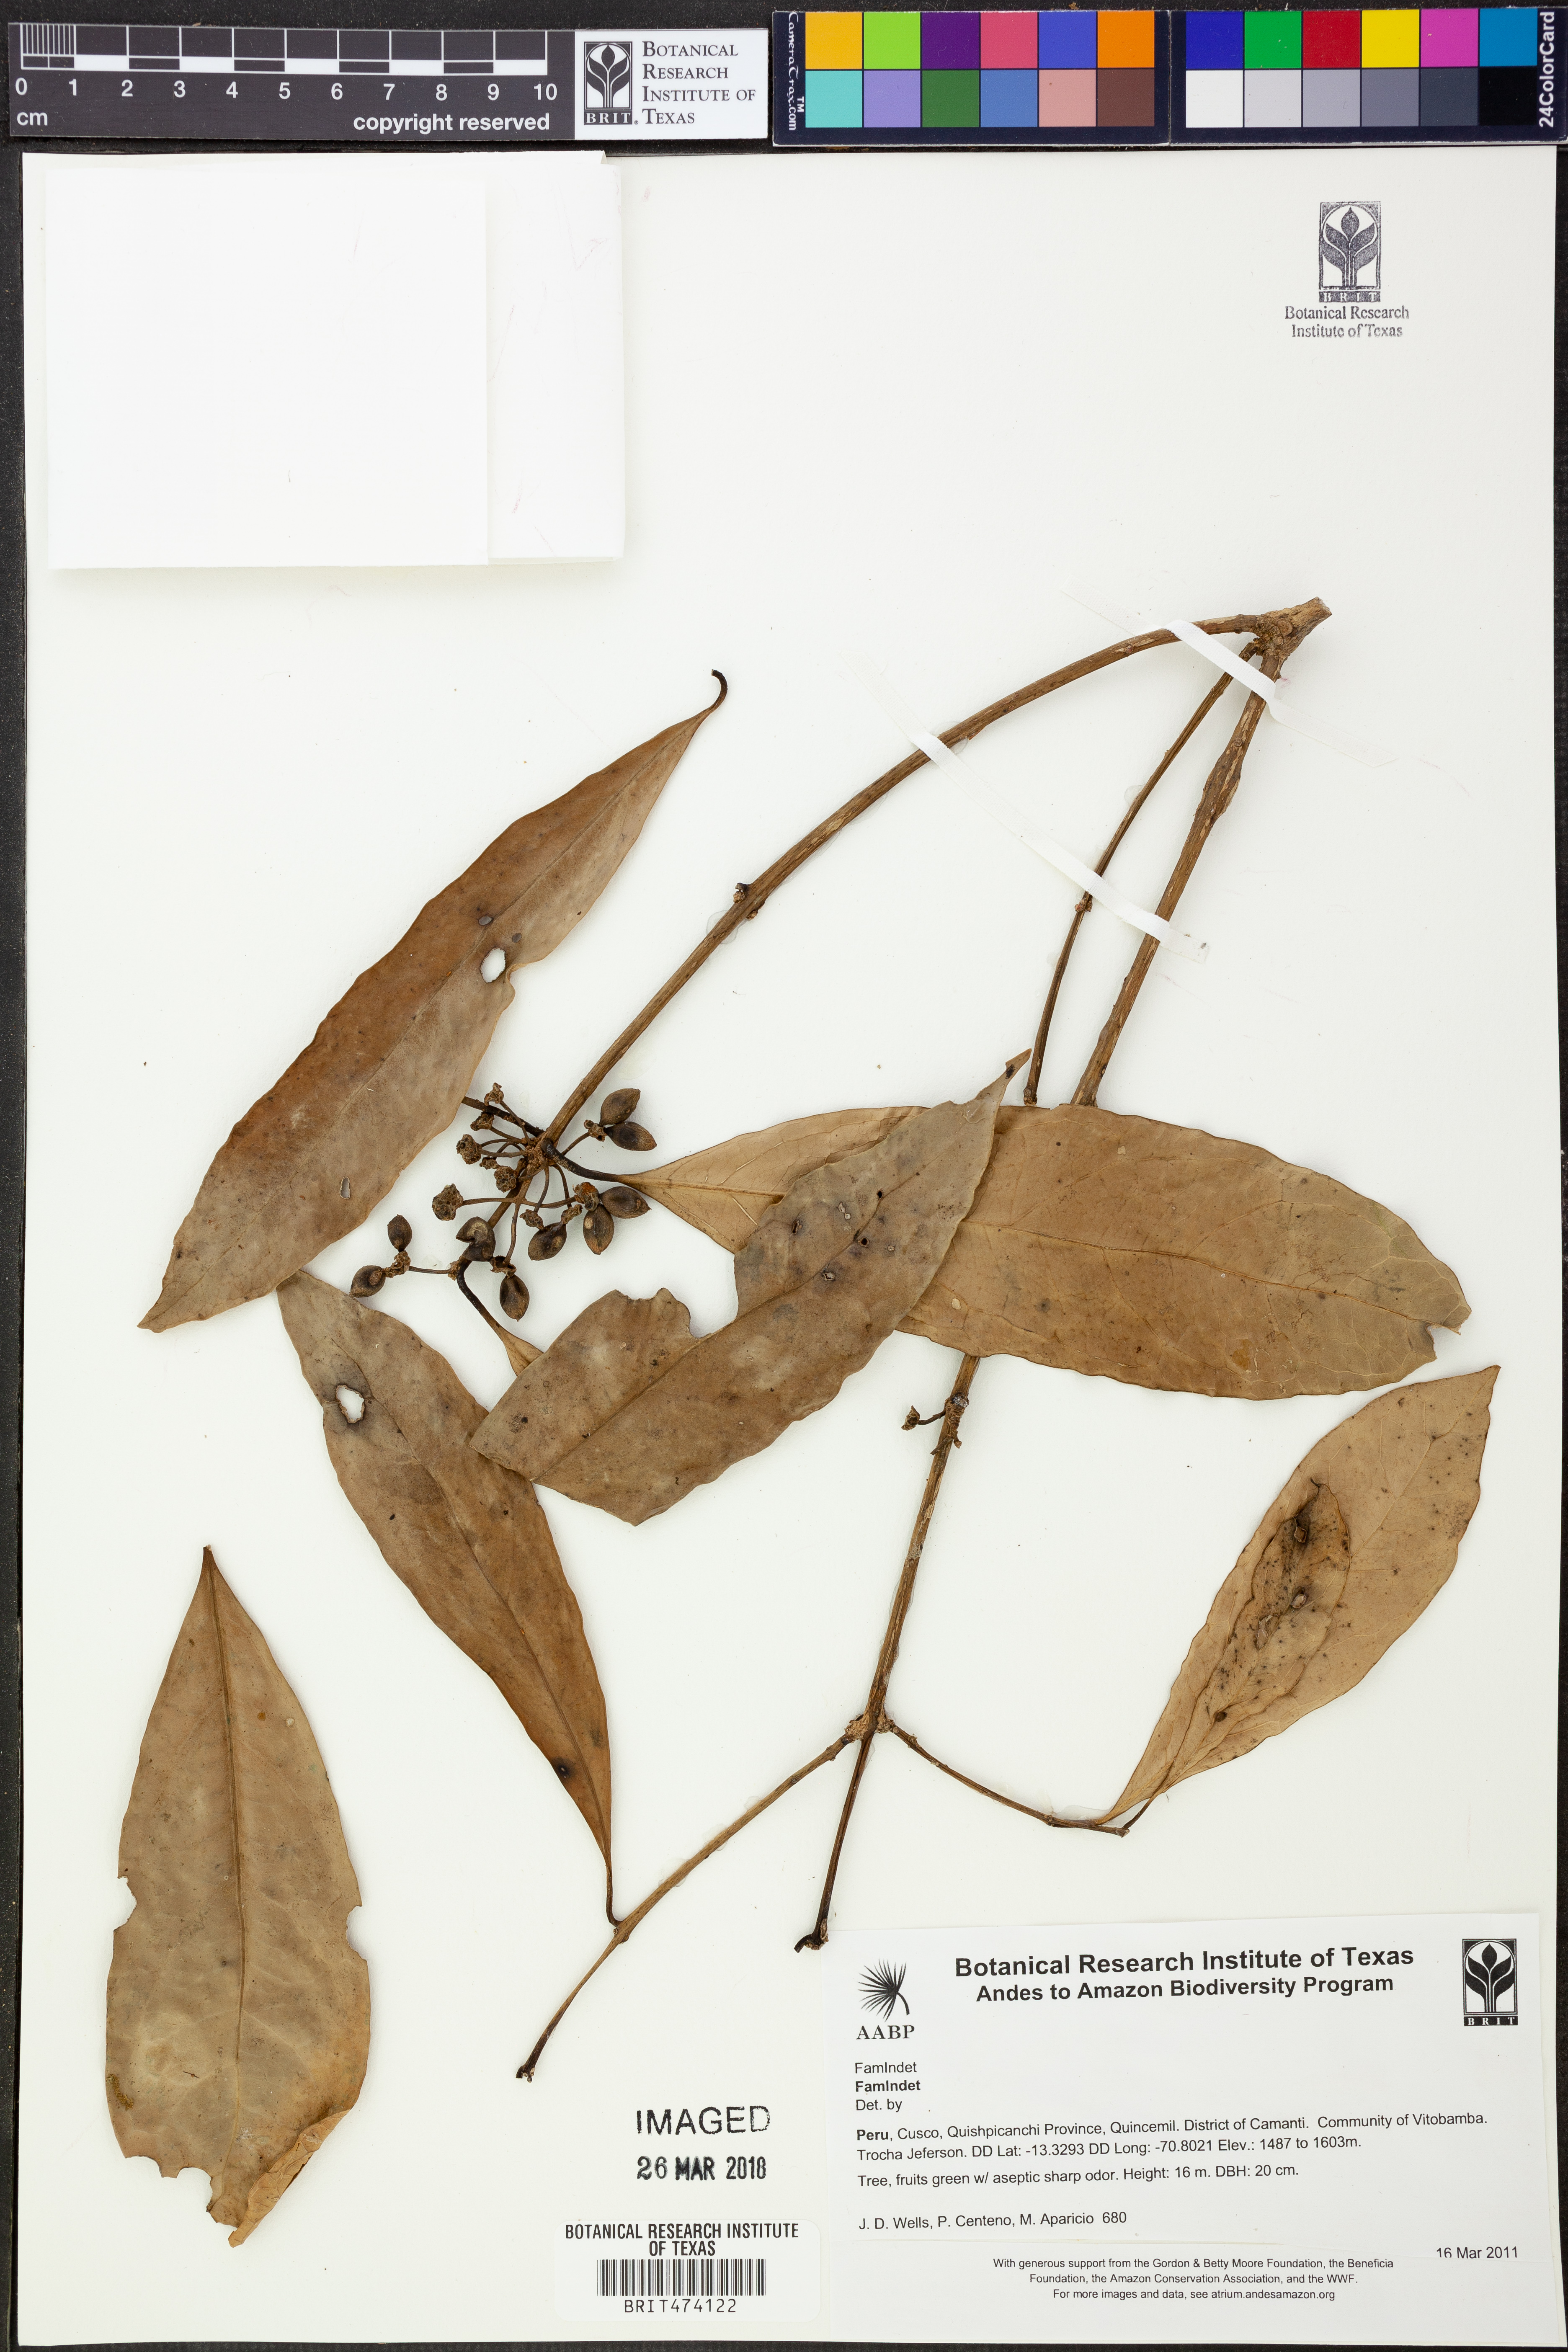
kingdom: Plantae
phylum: Tracheophyta
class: Magnoliopsida
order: Laurales
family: Monimiaceae
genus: Mollinedia
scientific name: Mollinedia
